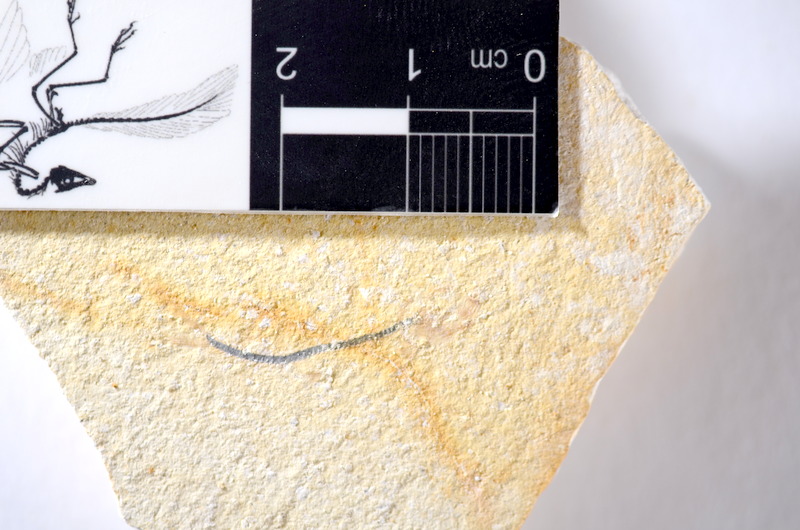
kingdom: Animalia
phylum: Chordata
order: Salmoniformes
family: Orthogonikleithridae
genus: Orthogonikleithrus
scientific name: Orthogonikleithrus hoelli
